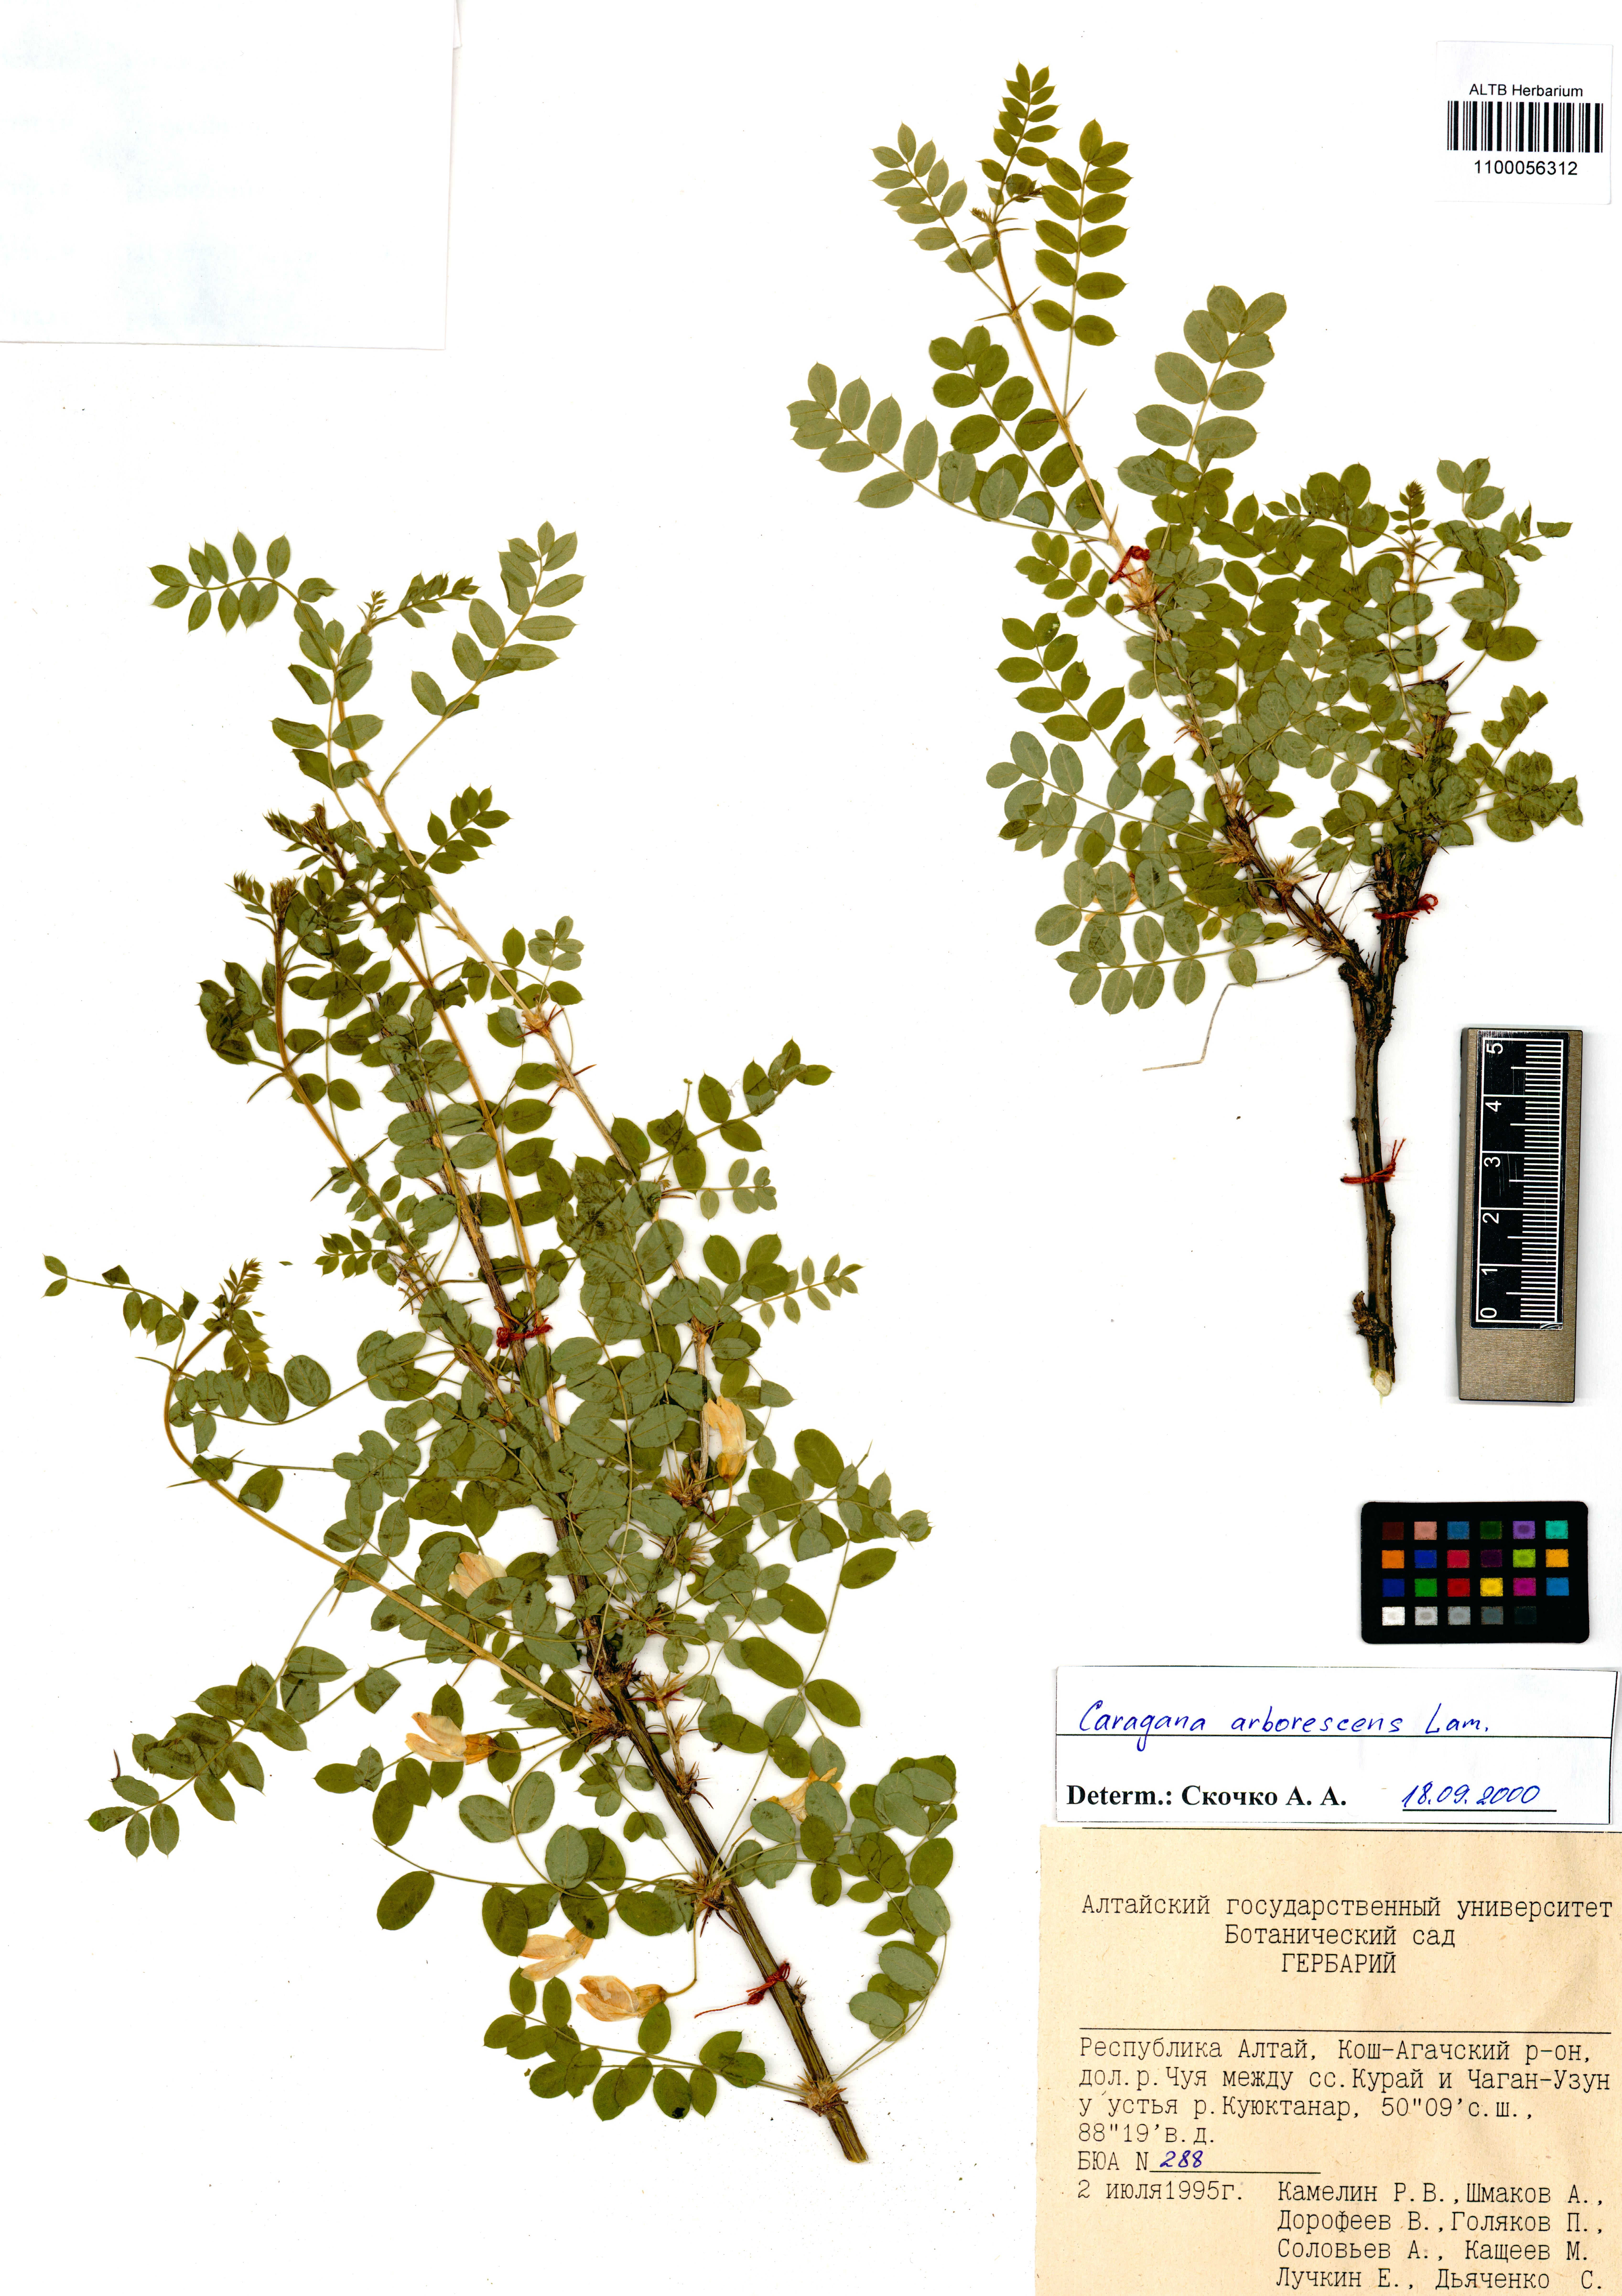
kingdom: Plantae
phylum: Tracheophyta
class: Magnoliopsida
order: Fabales
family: Fabaceae
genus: Caragana
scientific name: Caragana arborescens
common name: Siberian peashrub
